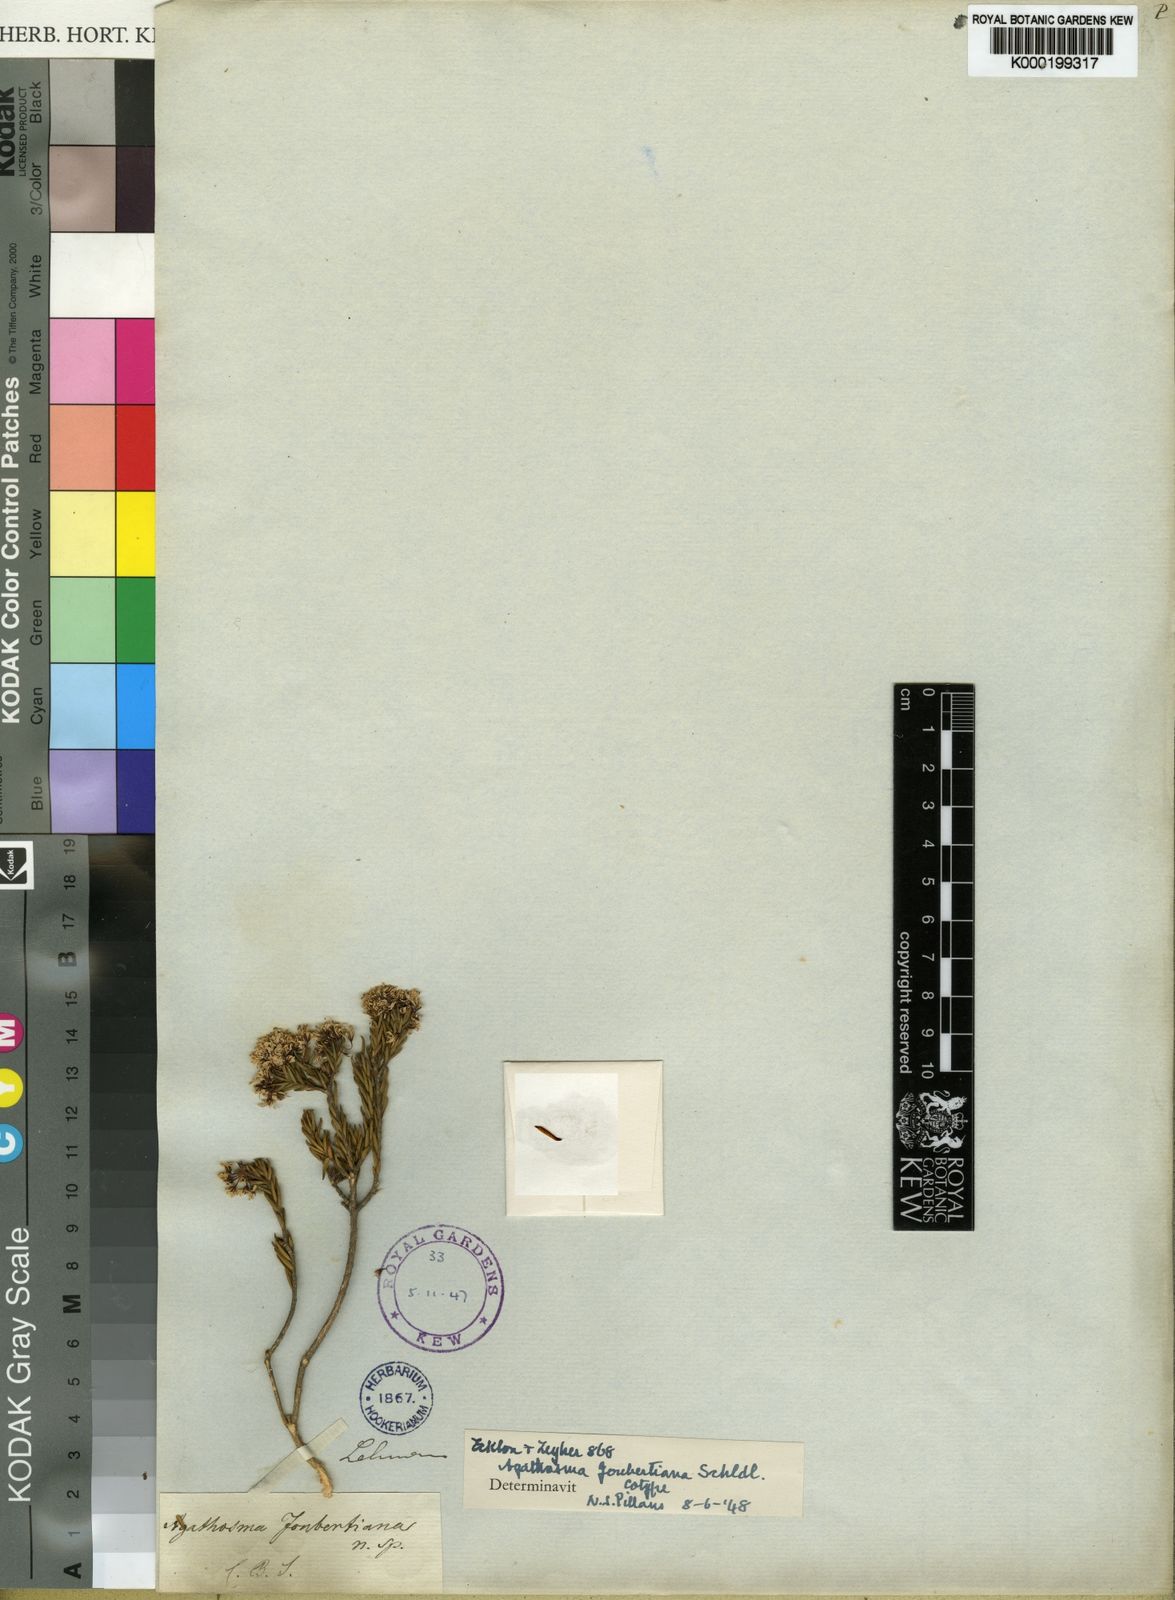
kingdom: Plantae
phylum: Tracheophyta
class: Magnoliopsida
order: Sapindales
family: Rutaceae
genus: Agathosma
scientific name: Agathosma joubertiana
